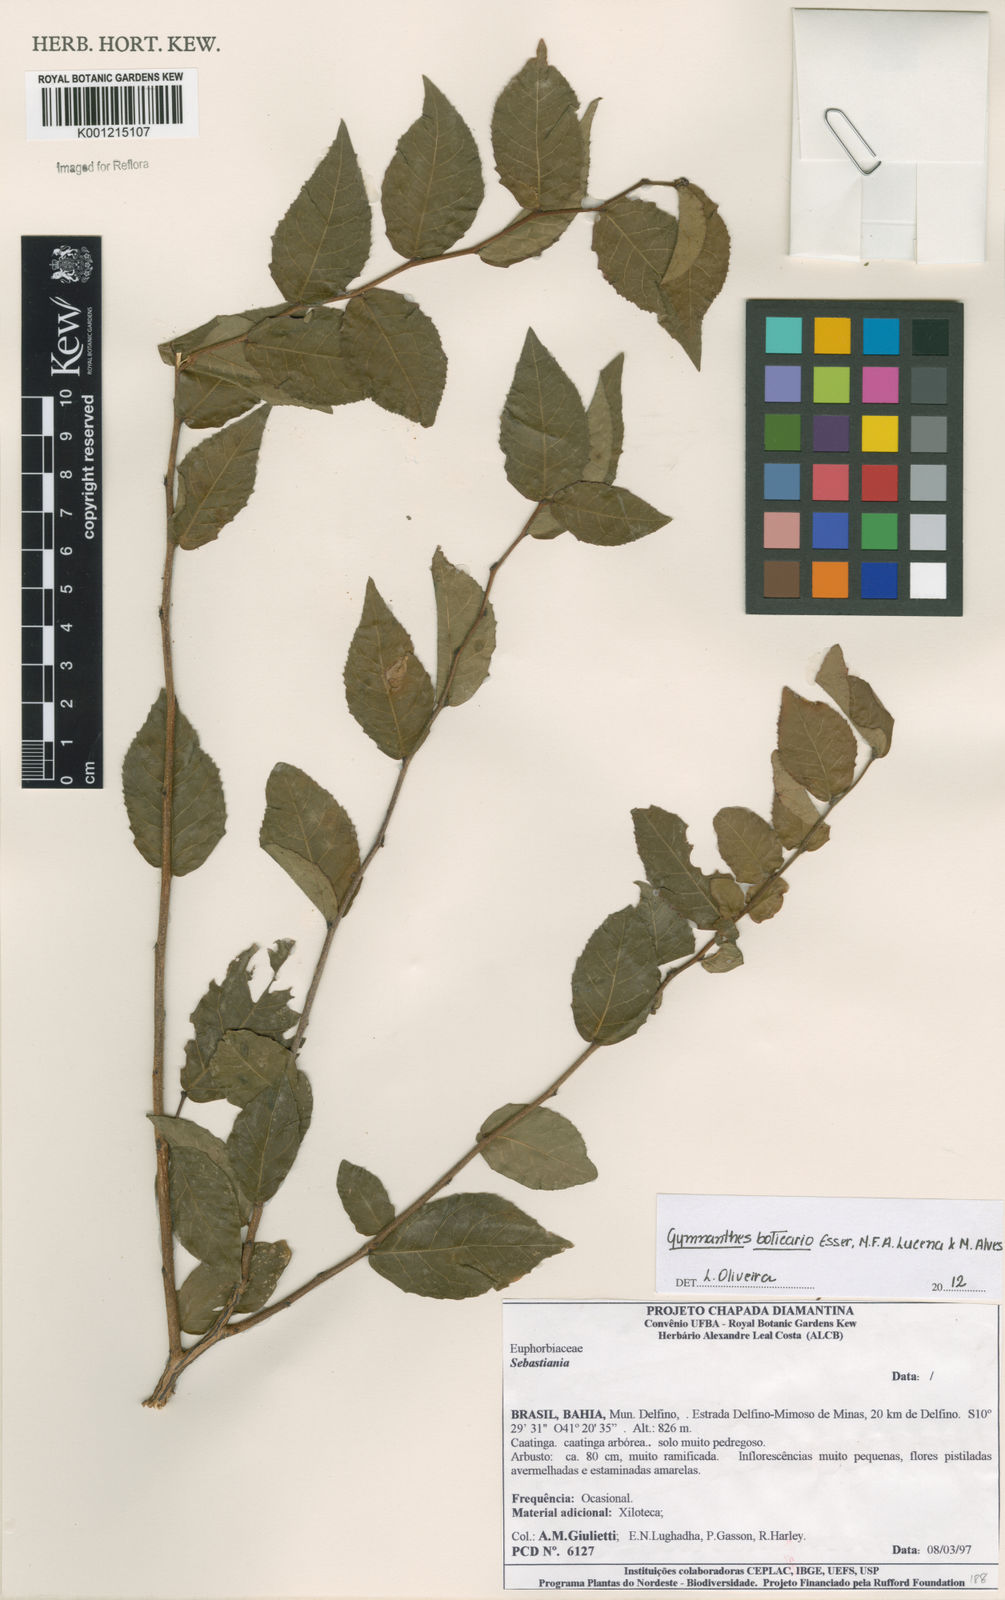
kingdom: Plantae
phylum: Tracheophyta
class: Magnoliopsida
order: Malpighiales
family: Euphorbiaceae
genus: Gymnanthes
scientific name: Gymnanthes boticario
